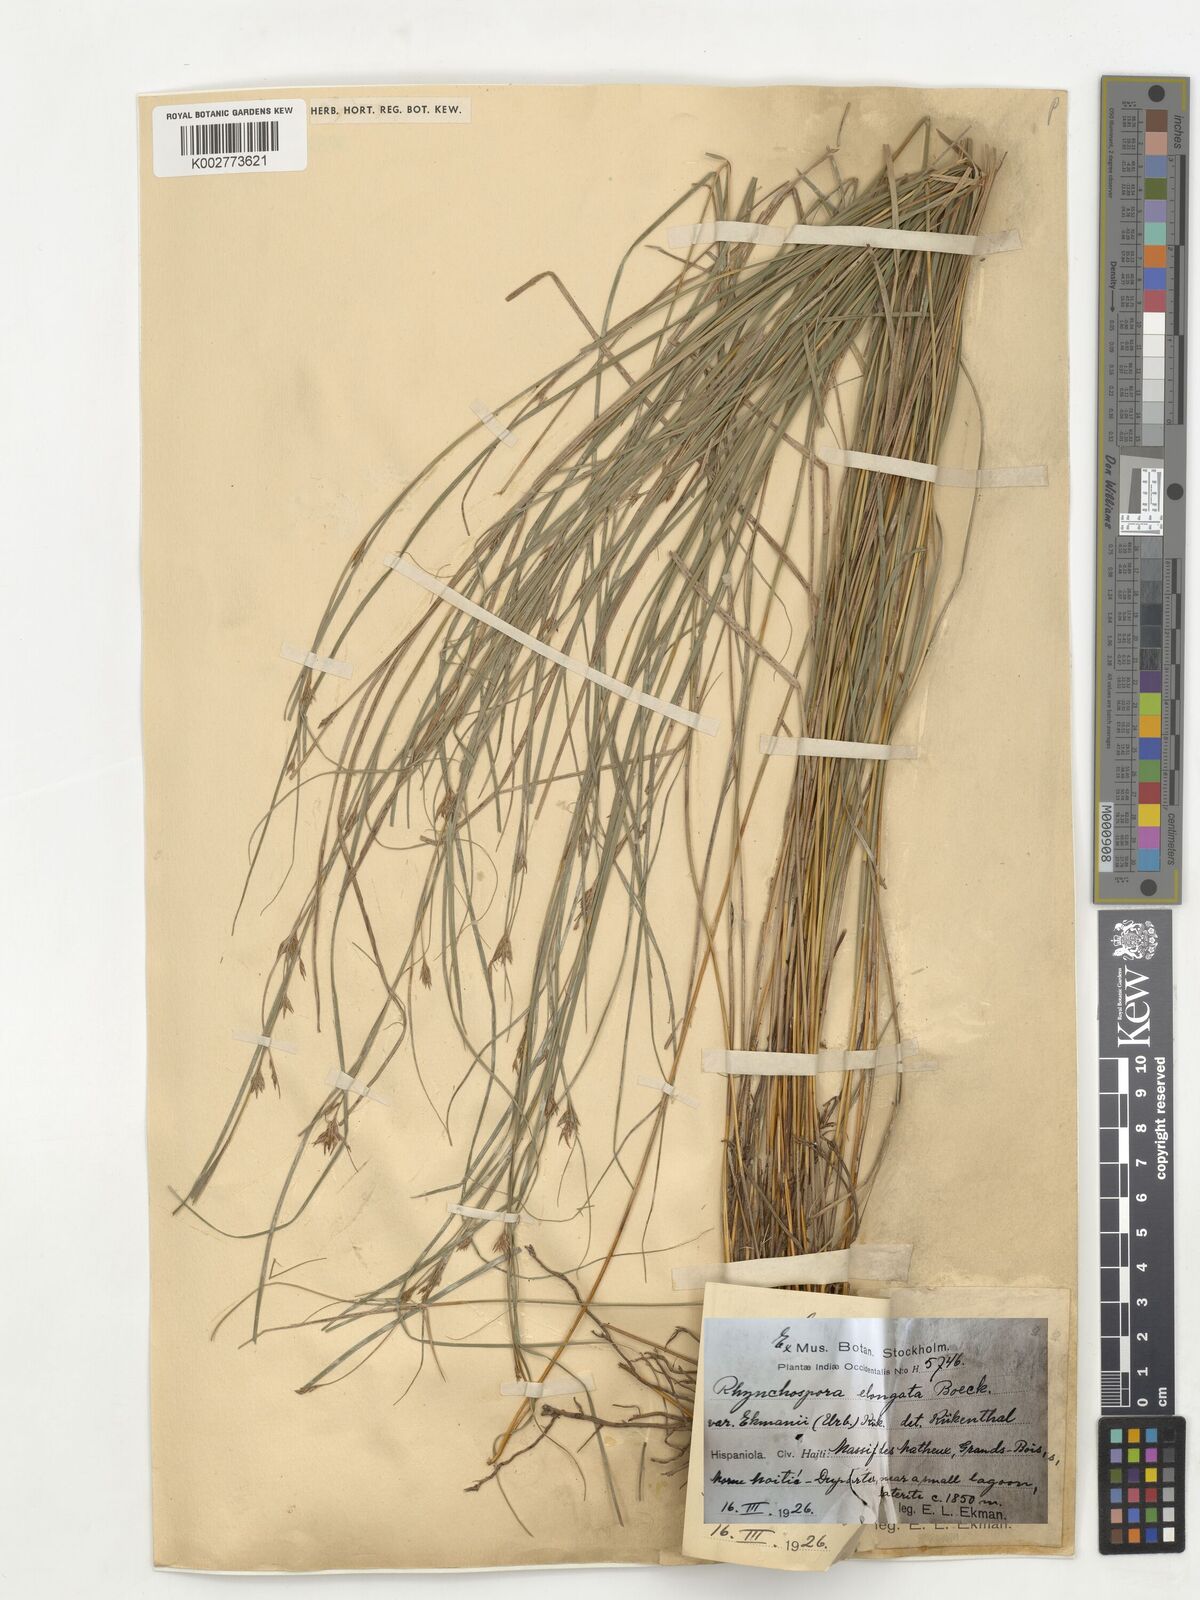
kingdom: Plantae
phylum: Tracheophyta
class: Liliopsida
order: Poales
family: Cyperaceae
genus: Rhynchospora
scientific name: Rhynchospora biflora
